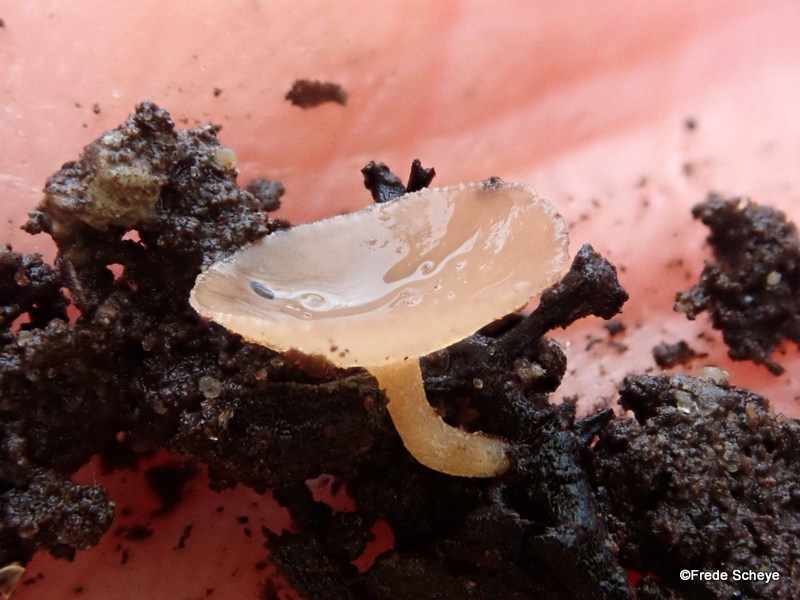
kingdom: Fungi
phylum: Ascomycota
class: Leotiomycetes
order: Helotiales
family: Sclerotiniaceae
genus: Ciboria
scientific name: Ciboria amentacea
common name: ellerakle-knoldskive
